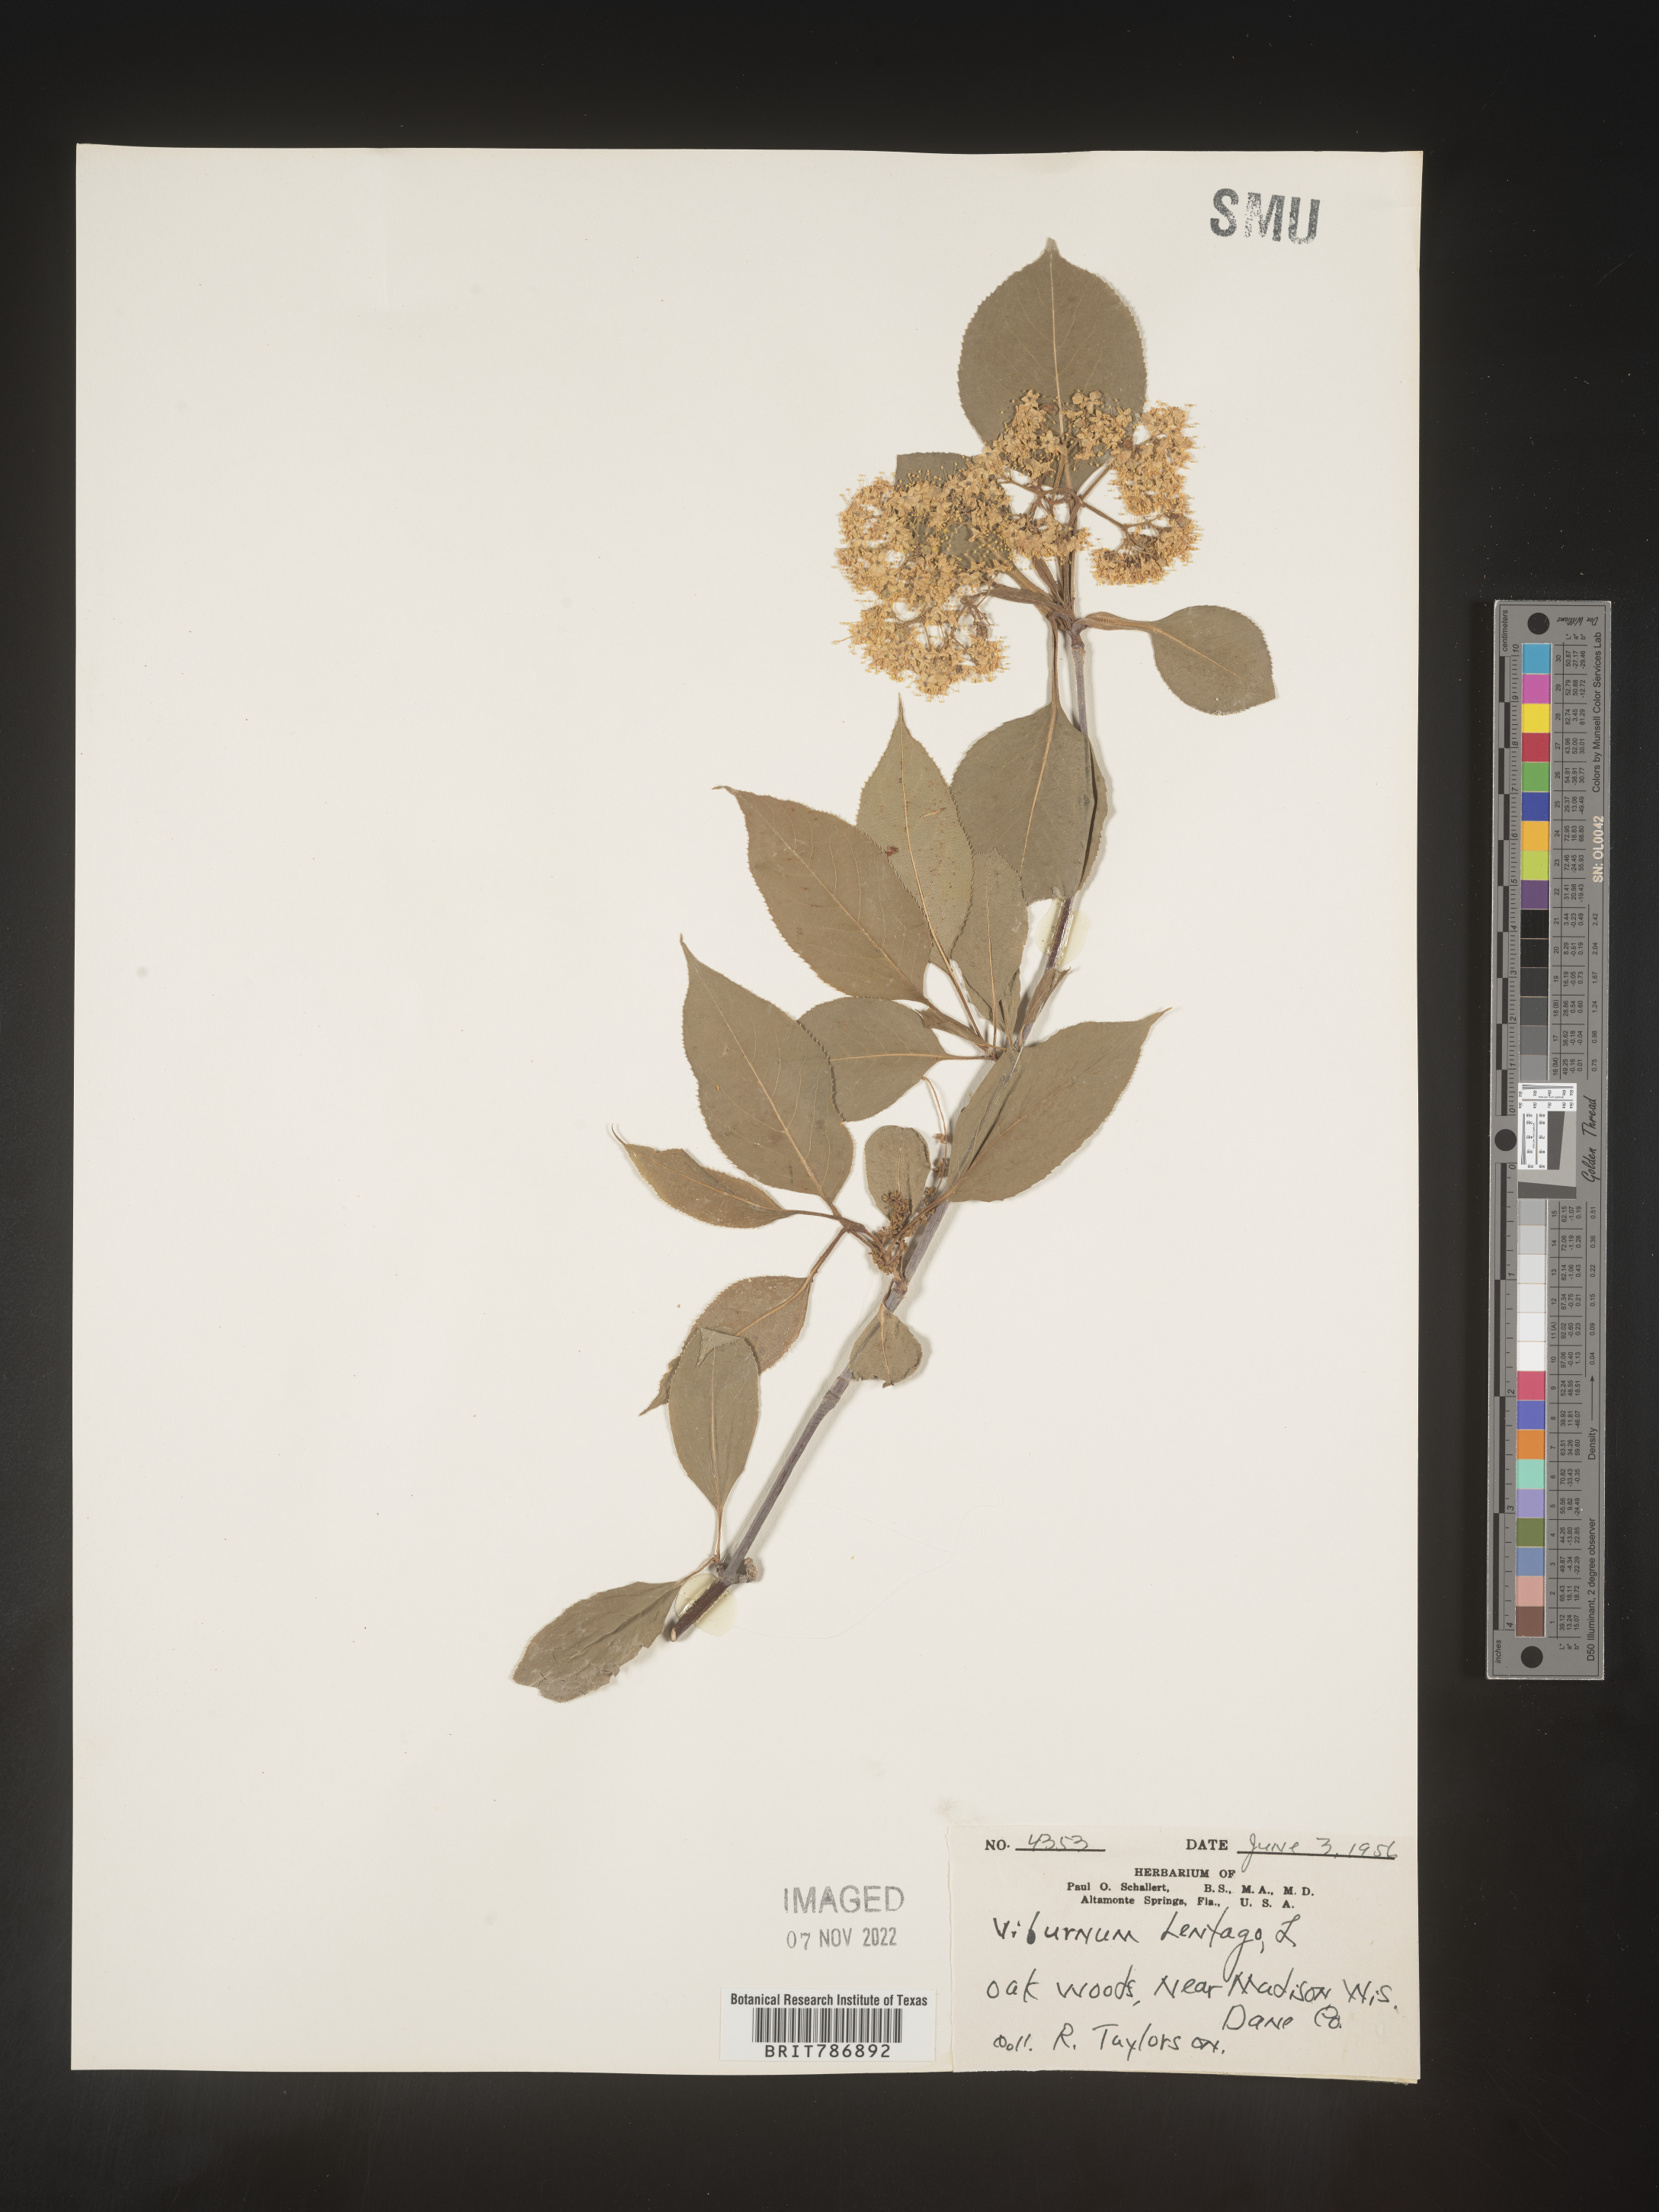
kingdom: Plantae
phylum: Tracheophyta
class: Magnoliopsida
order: Dipsacales
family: Viburnaceae
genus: Viburnum
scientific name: Viburnum lentago
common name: Black haw
